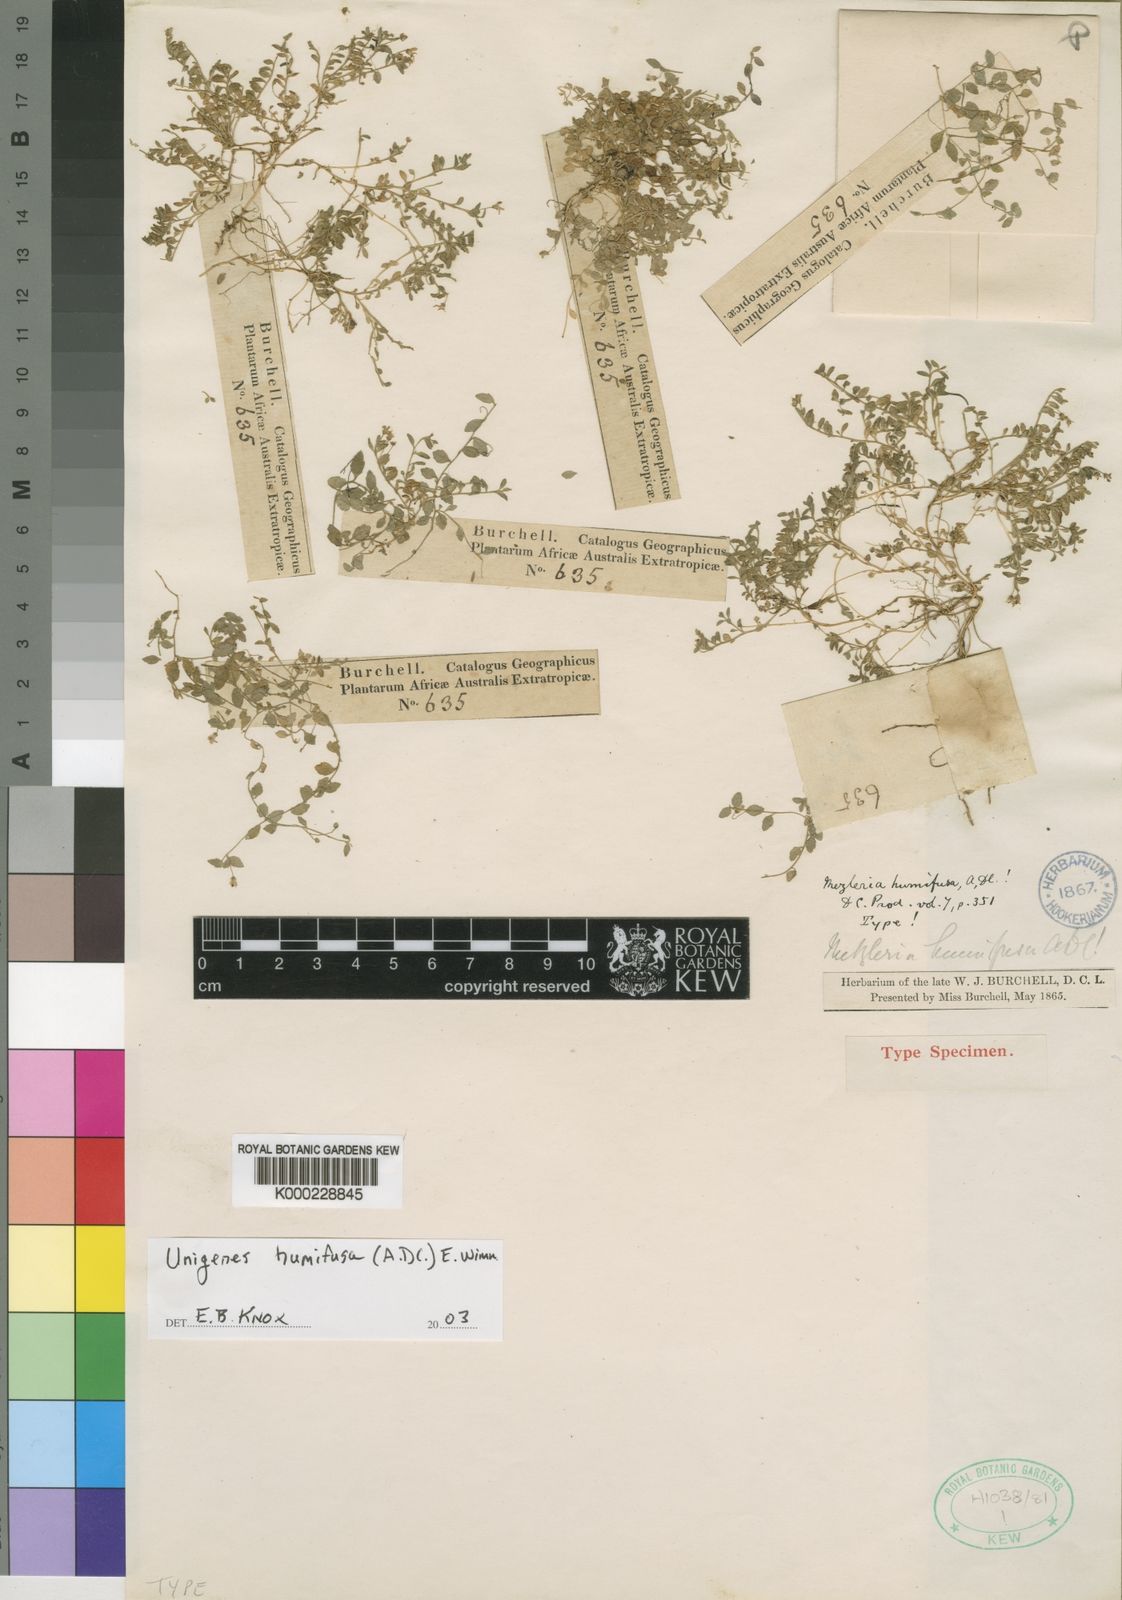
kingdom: Plantae
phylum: Tracheophyta
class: Magnoliopsida
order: Asterales
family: Campanulaceae
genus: Unigenes
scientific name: Unigenes humifusa
